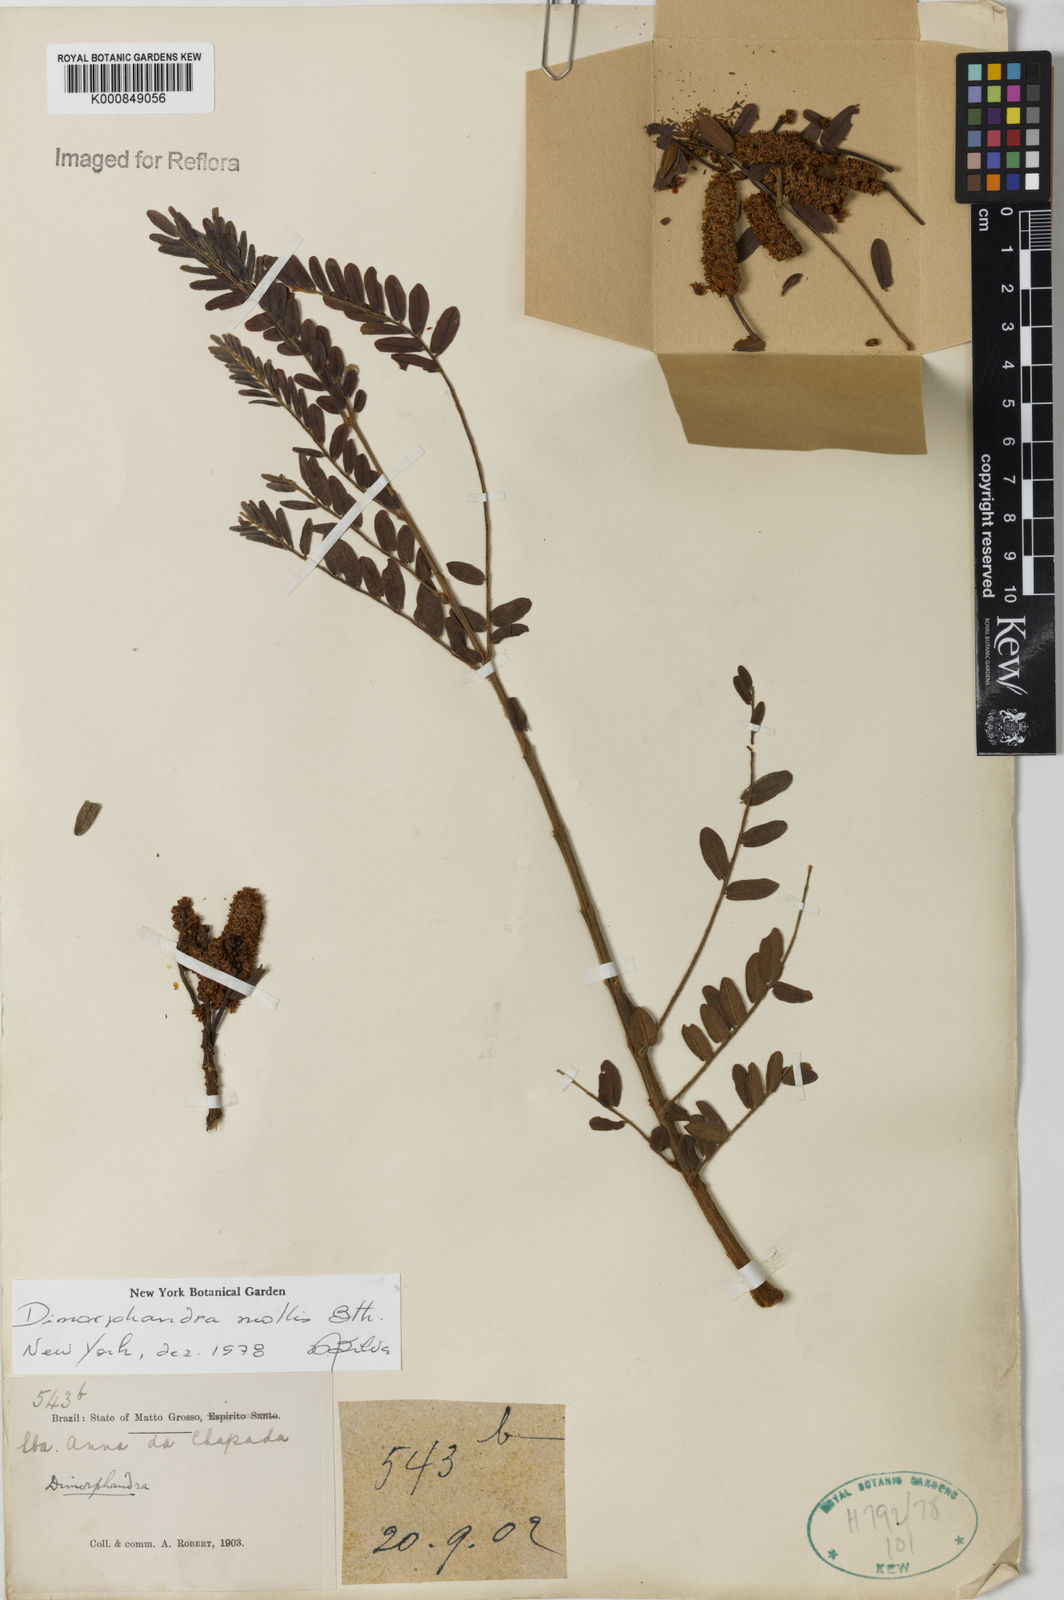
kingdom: Plantae
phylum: Tracheophyta
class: Magnoliopsida
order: Fabales
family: Fabaceae
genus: Dimorphandra
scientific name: Dimorphandra mollis
